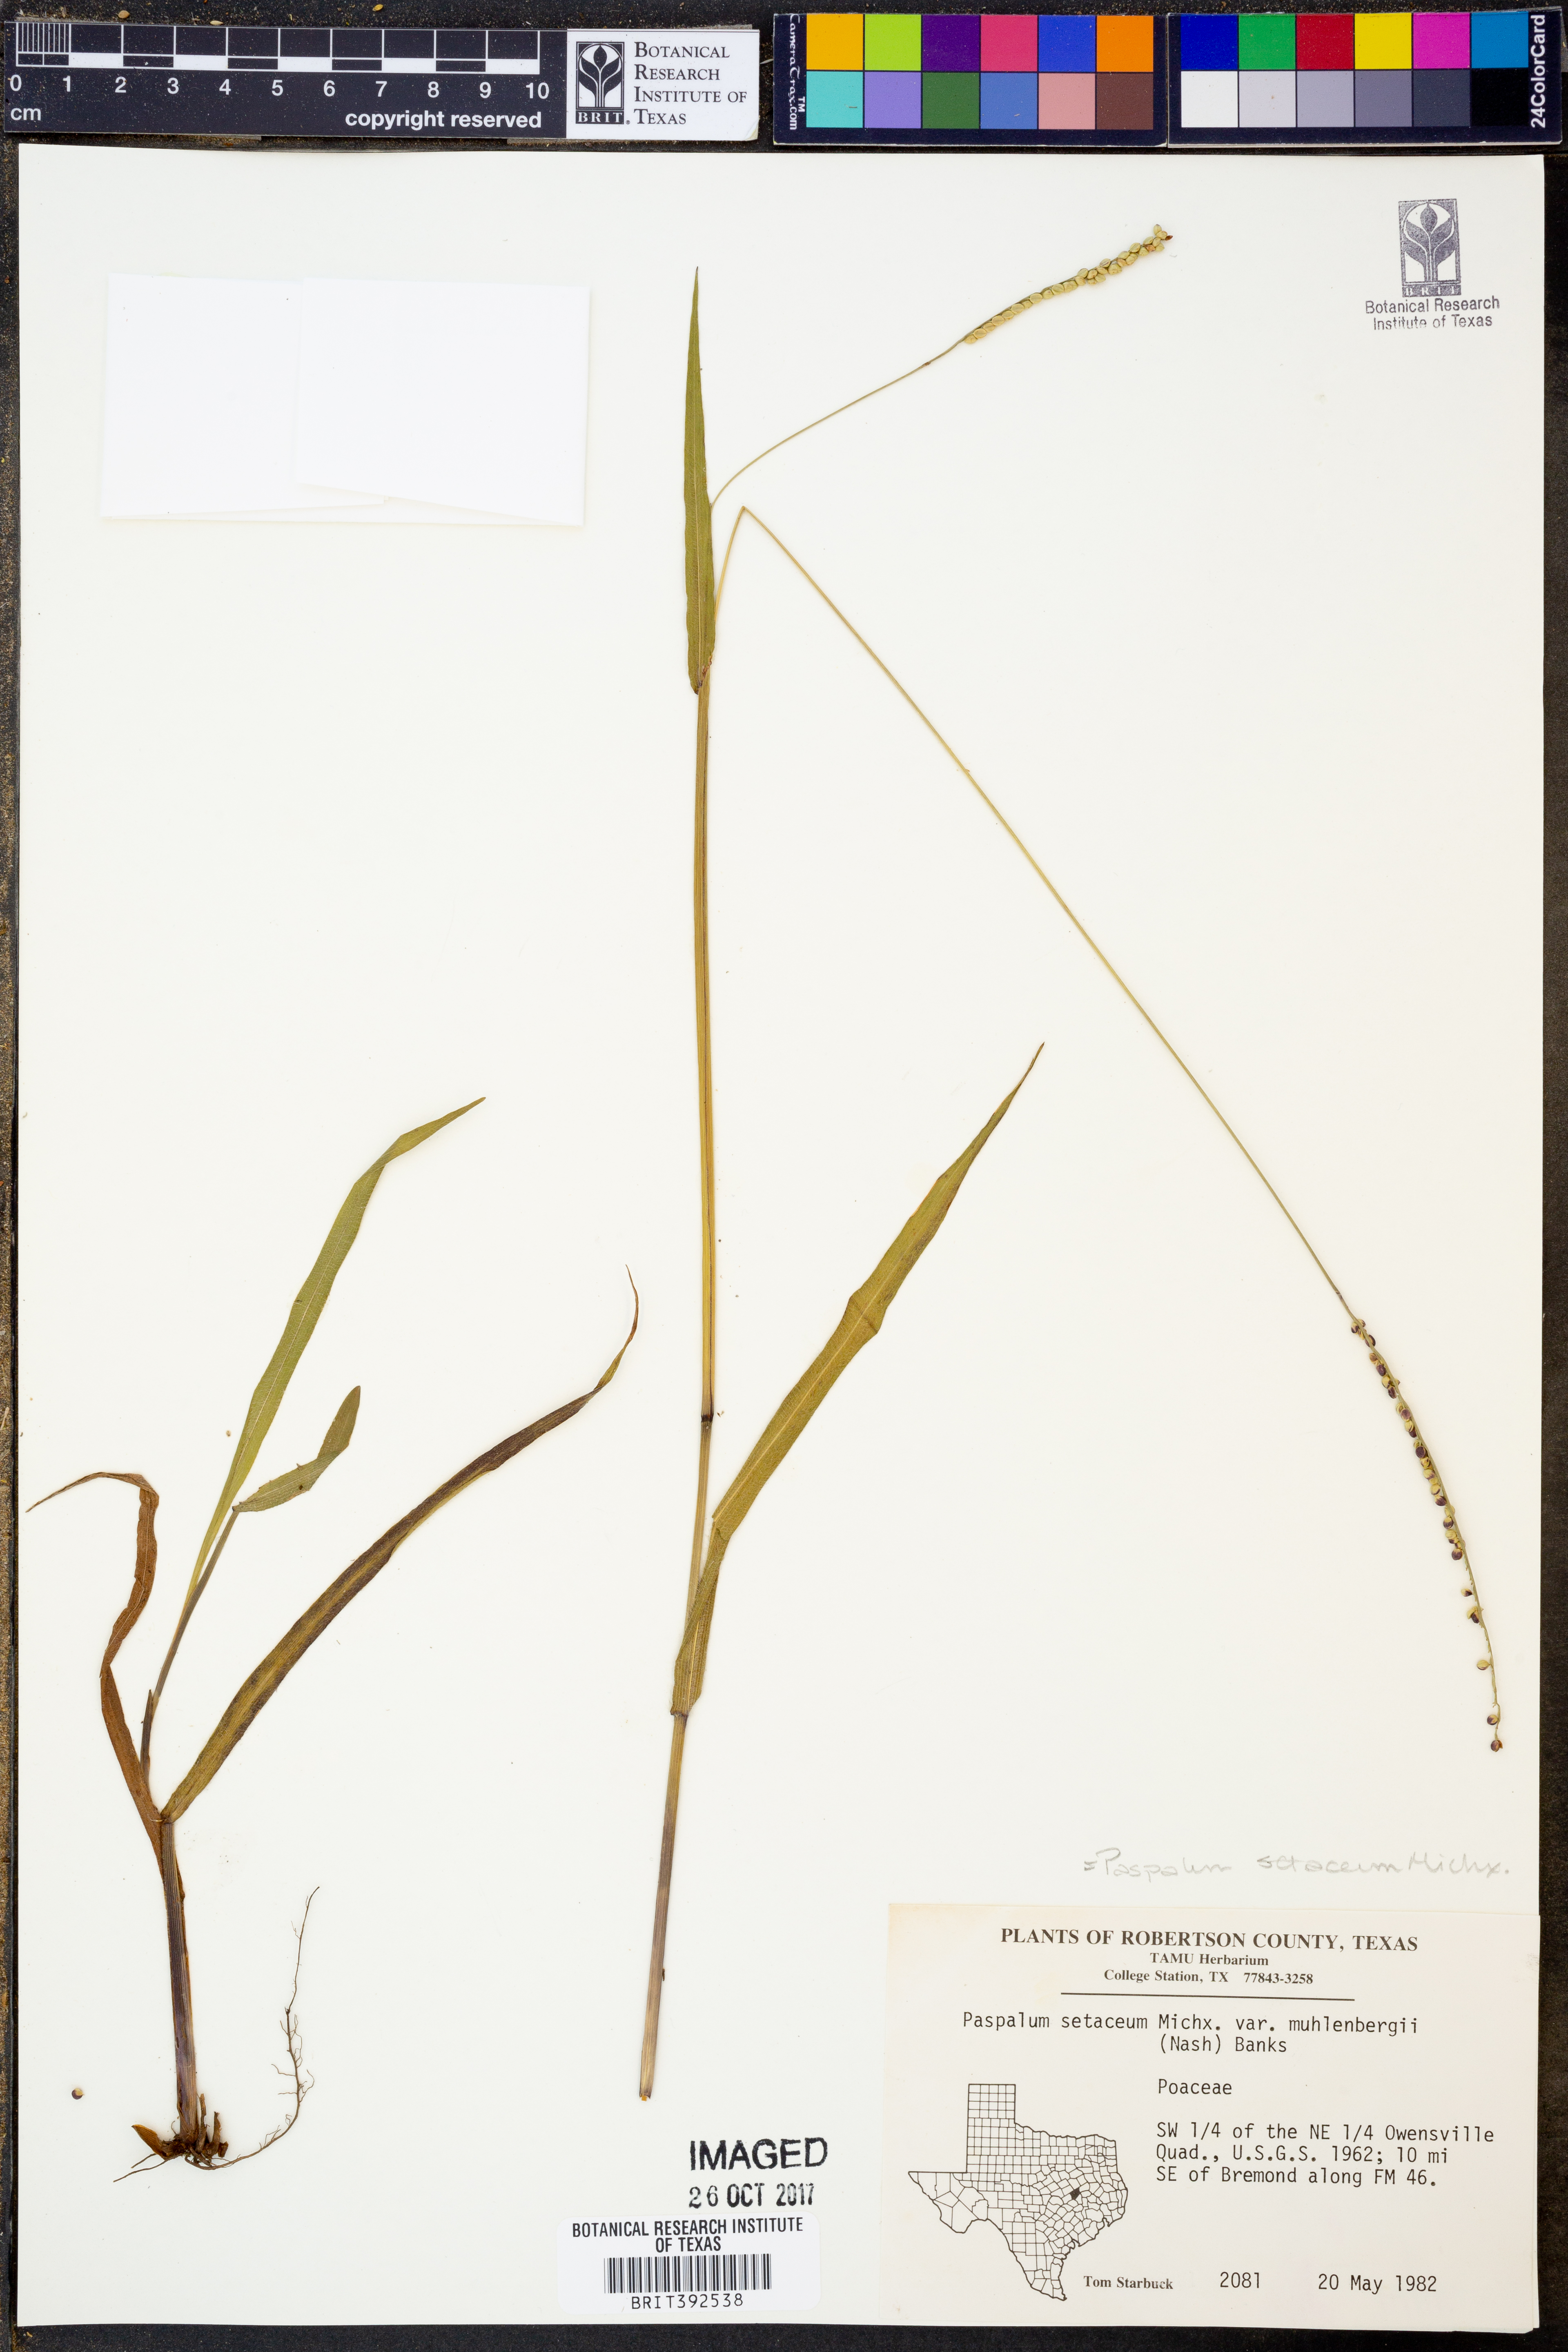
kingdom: Plantae
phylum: Tracheophyta
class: Liliopsida
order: Poales
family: Poaceae
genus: Paspalum
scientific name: Paspalum setaceum
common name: Slender paspalum
